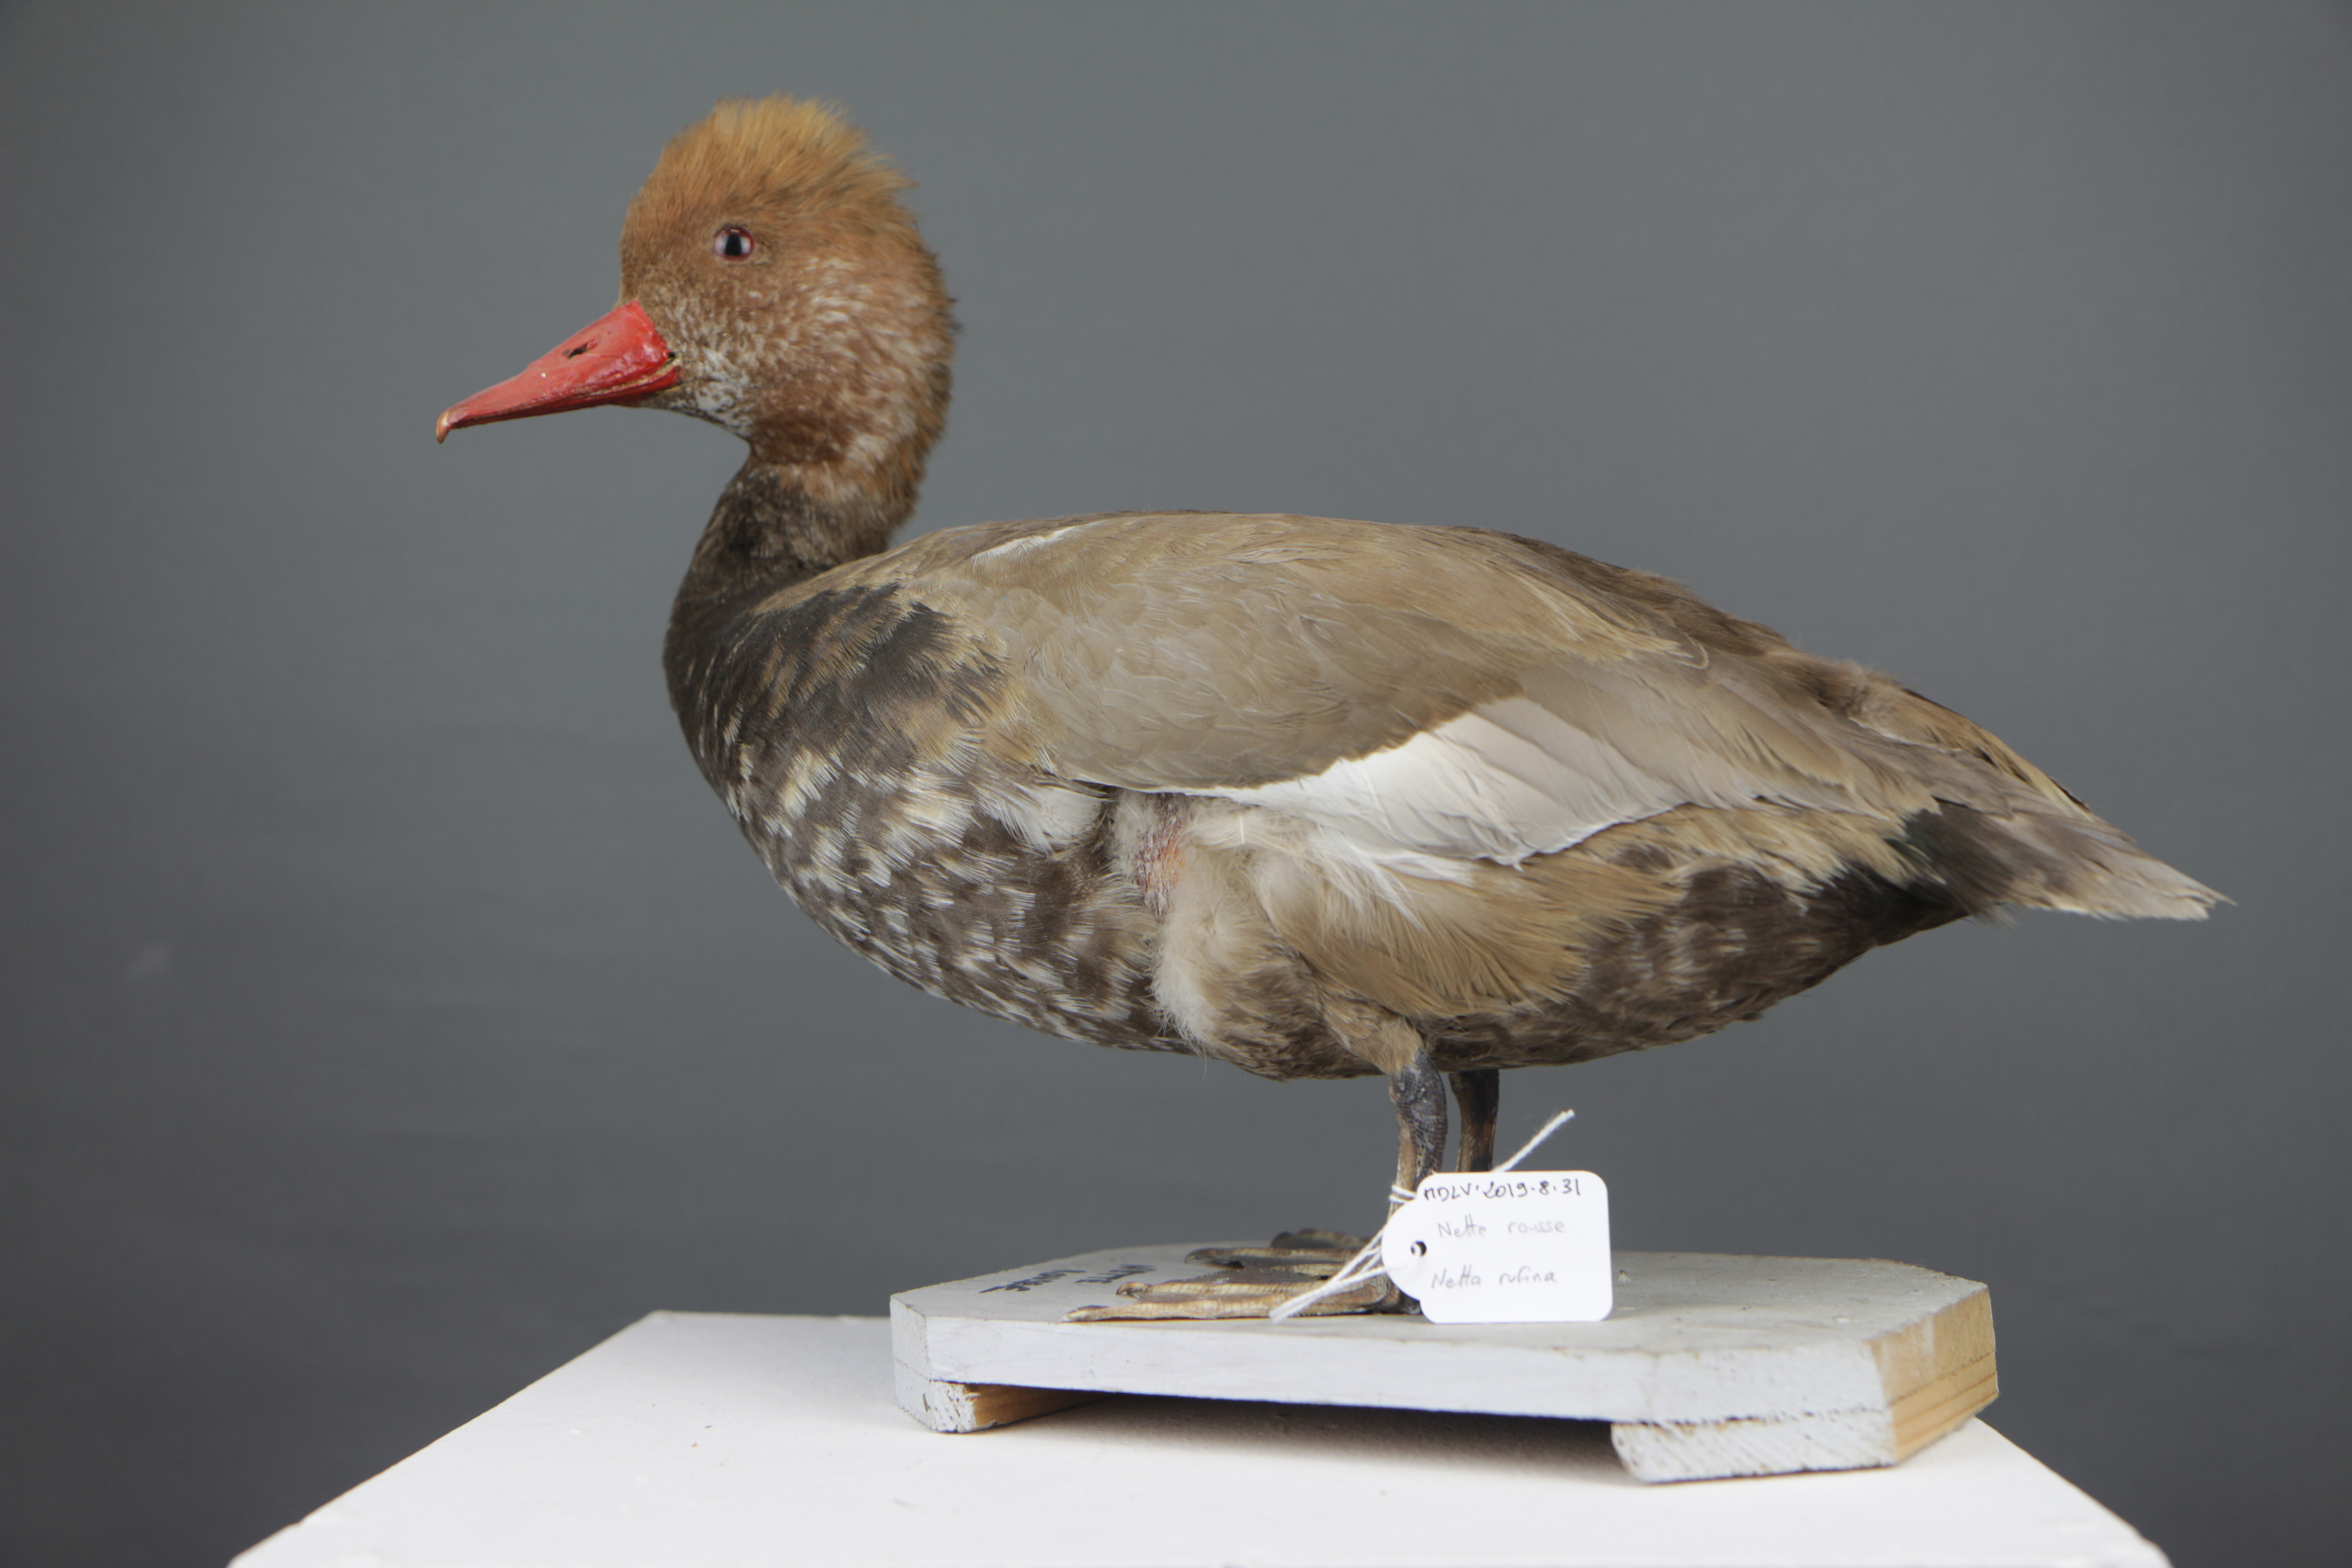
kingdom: Animalia
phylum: Chordata
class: Aves
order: Anseriformes
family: Anatidae
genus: Netta
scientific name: Netta rufina
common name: Red-crested pochard
